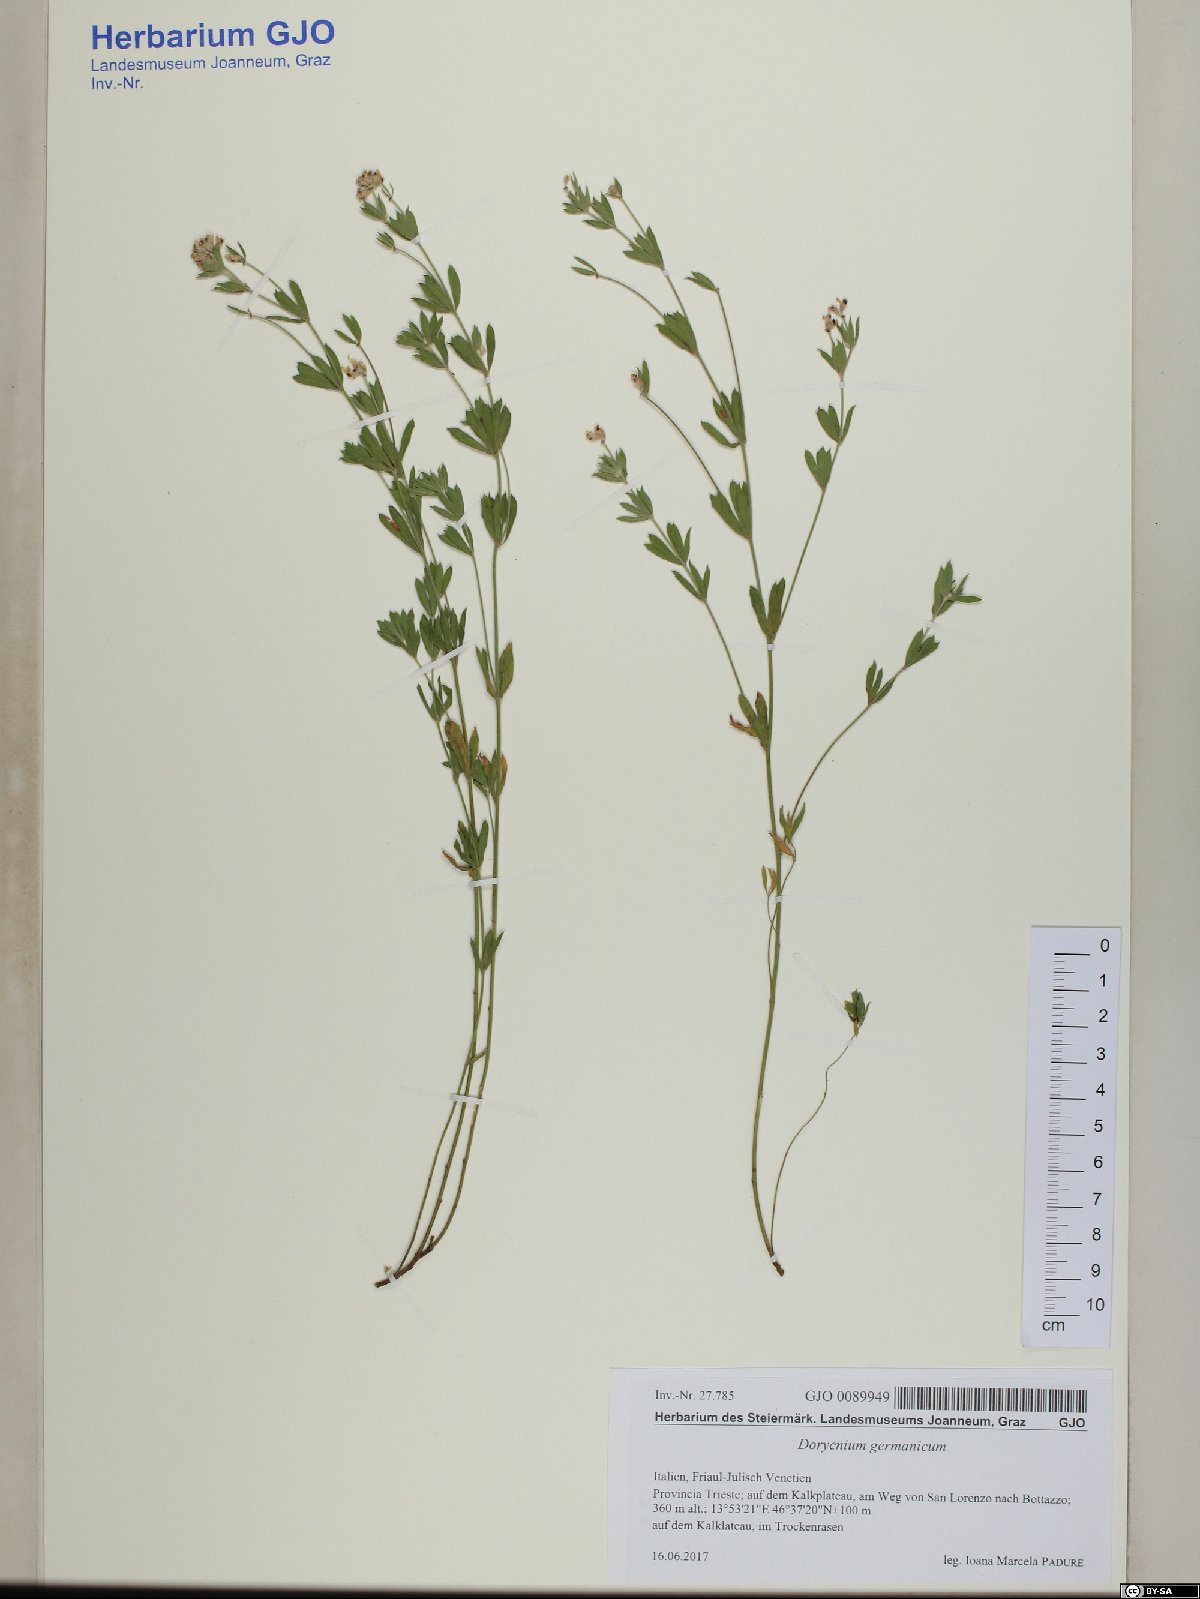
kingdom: Plantae
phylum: Tracheophyta
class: Magnoliopsida
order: Fabales
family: Fabaceae
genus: Lotus
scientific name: Lotus germanicus
